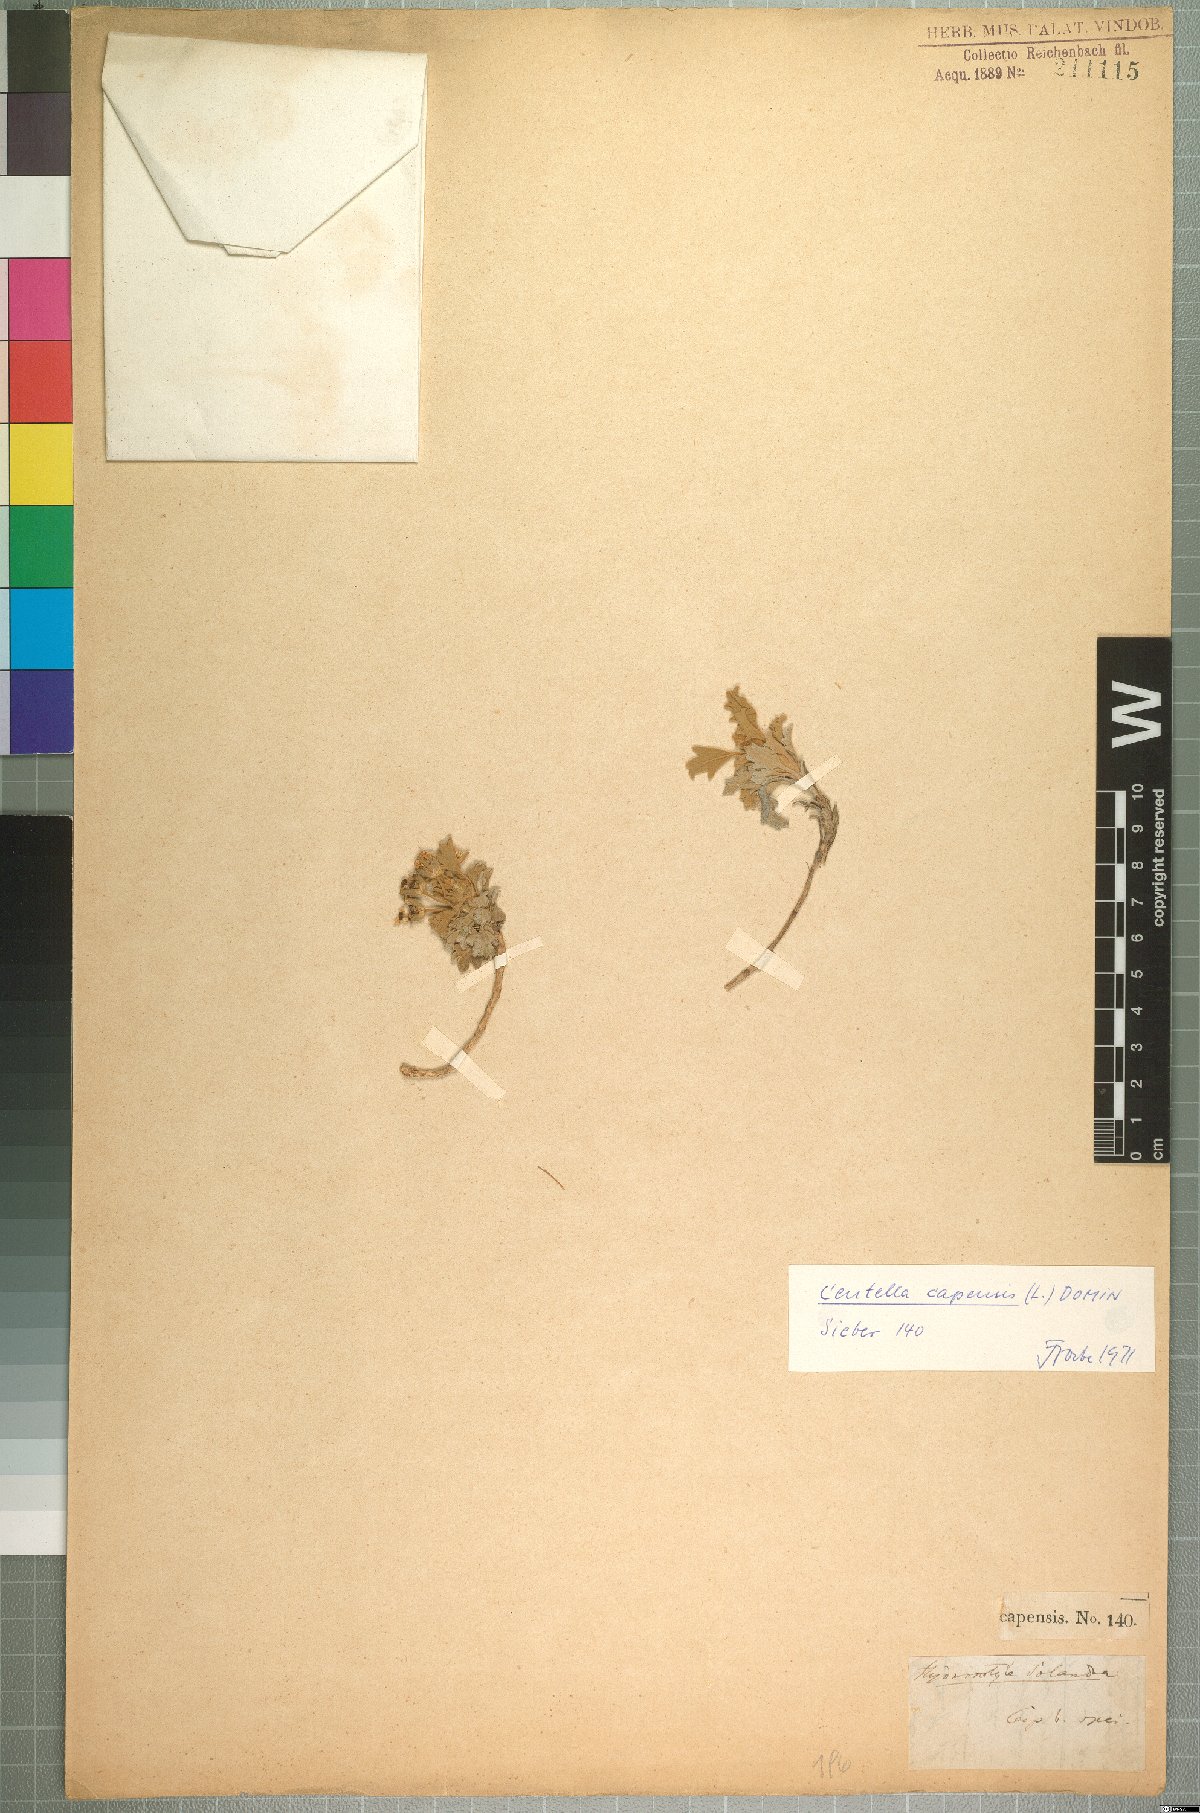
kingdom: Plantae
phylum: Tracheophyta
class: Magnoliopsida
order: Apiales
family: Apiaceae
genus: Centella
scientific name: Centella capensis
